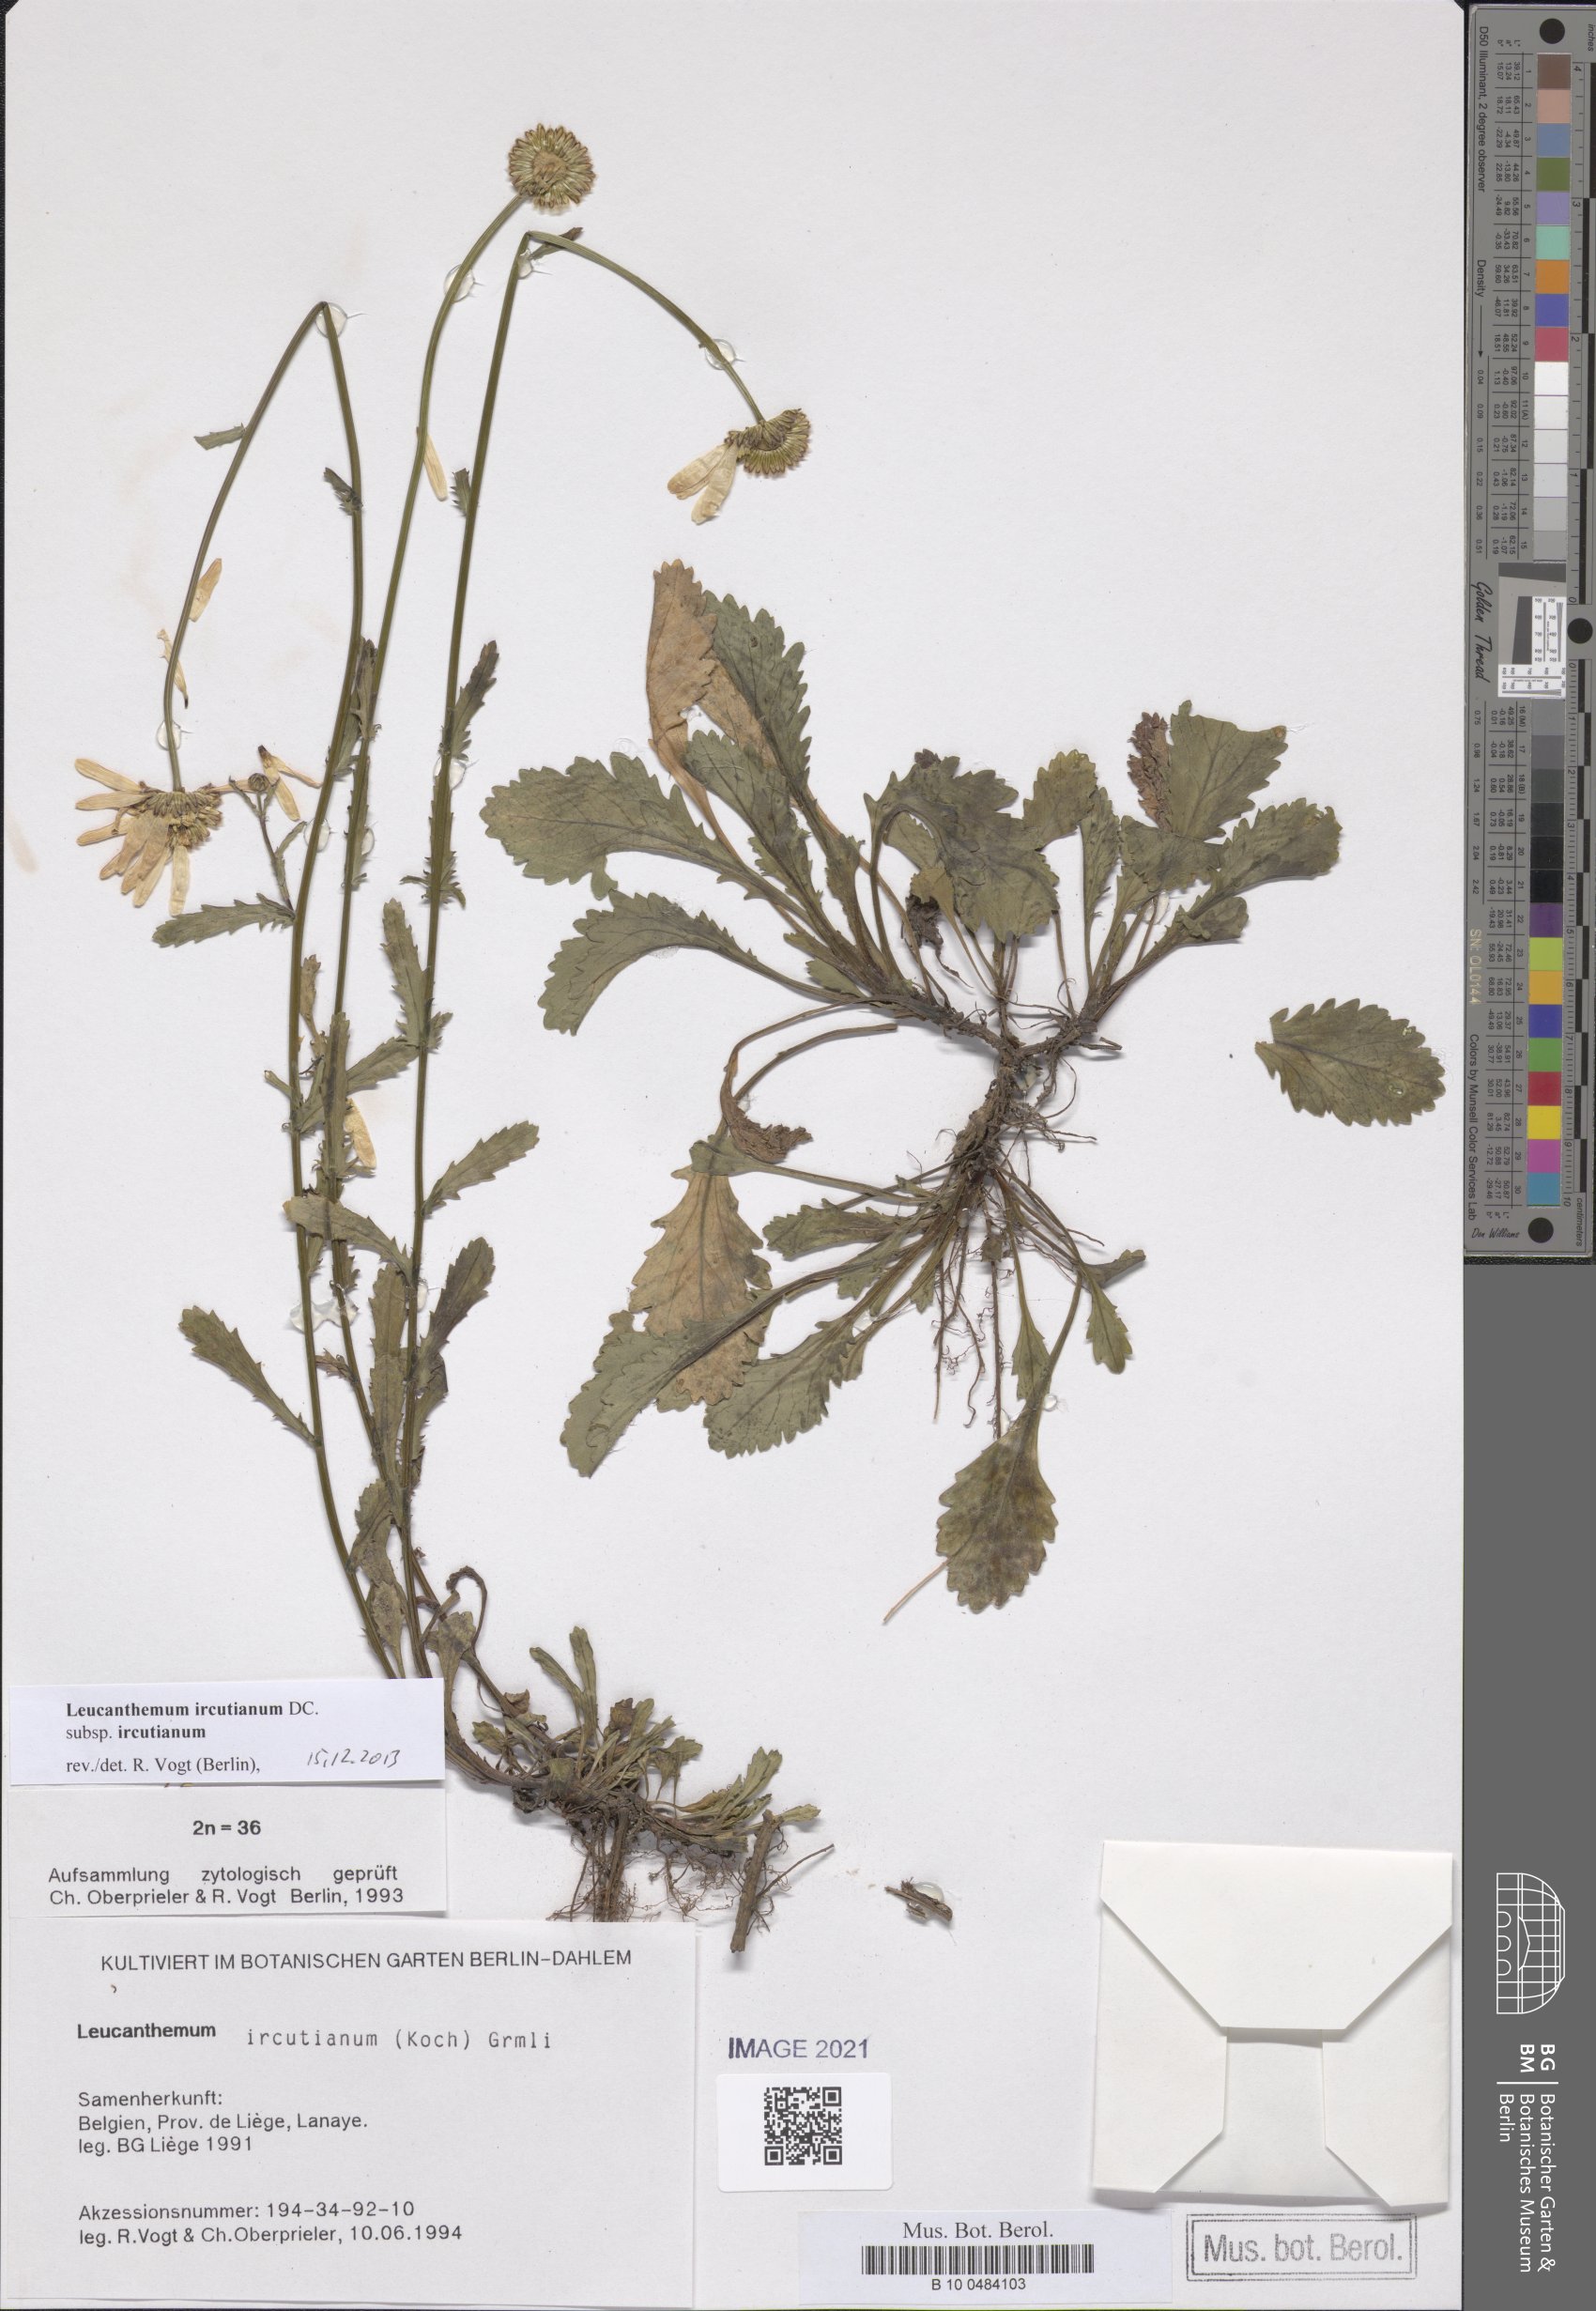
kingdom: Plantae
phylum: Tracheophyta
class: Magnoliopsida
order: Asterales
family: Asteraceae
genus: Leucanthemum
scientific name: Leucanthemum ircutianum
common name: Daisy
